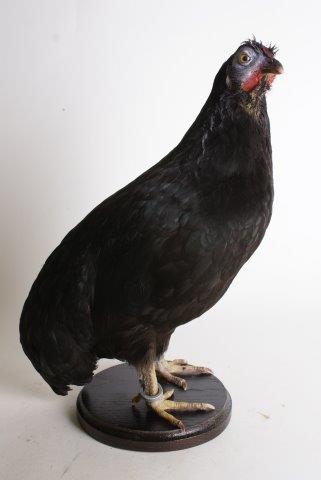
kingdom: Animalia
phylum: Chordata
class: Aves
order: Galliformes
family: Phasianidae
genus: Gallus
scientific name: Gallus gallus
